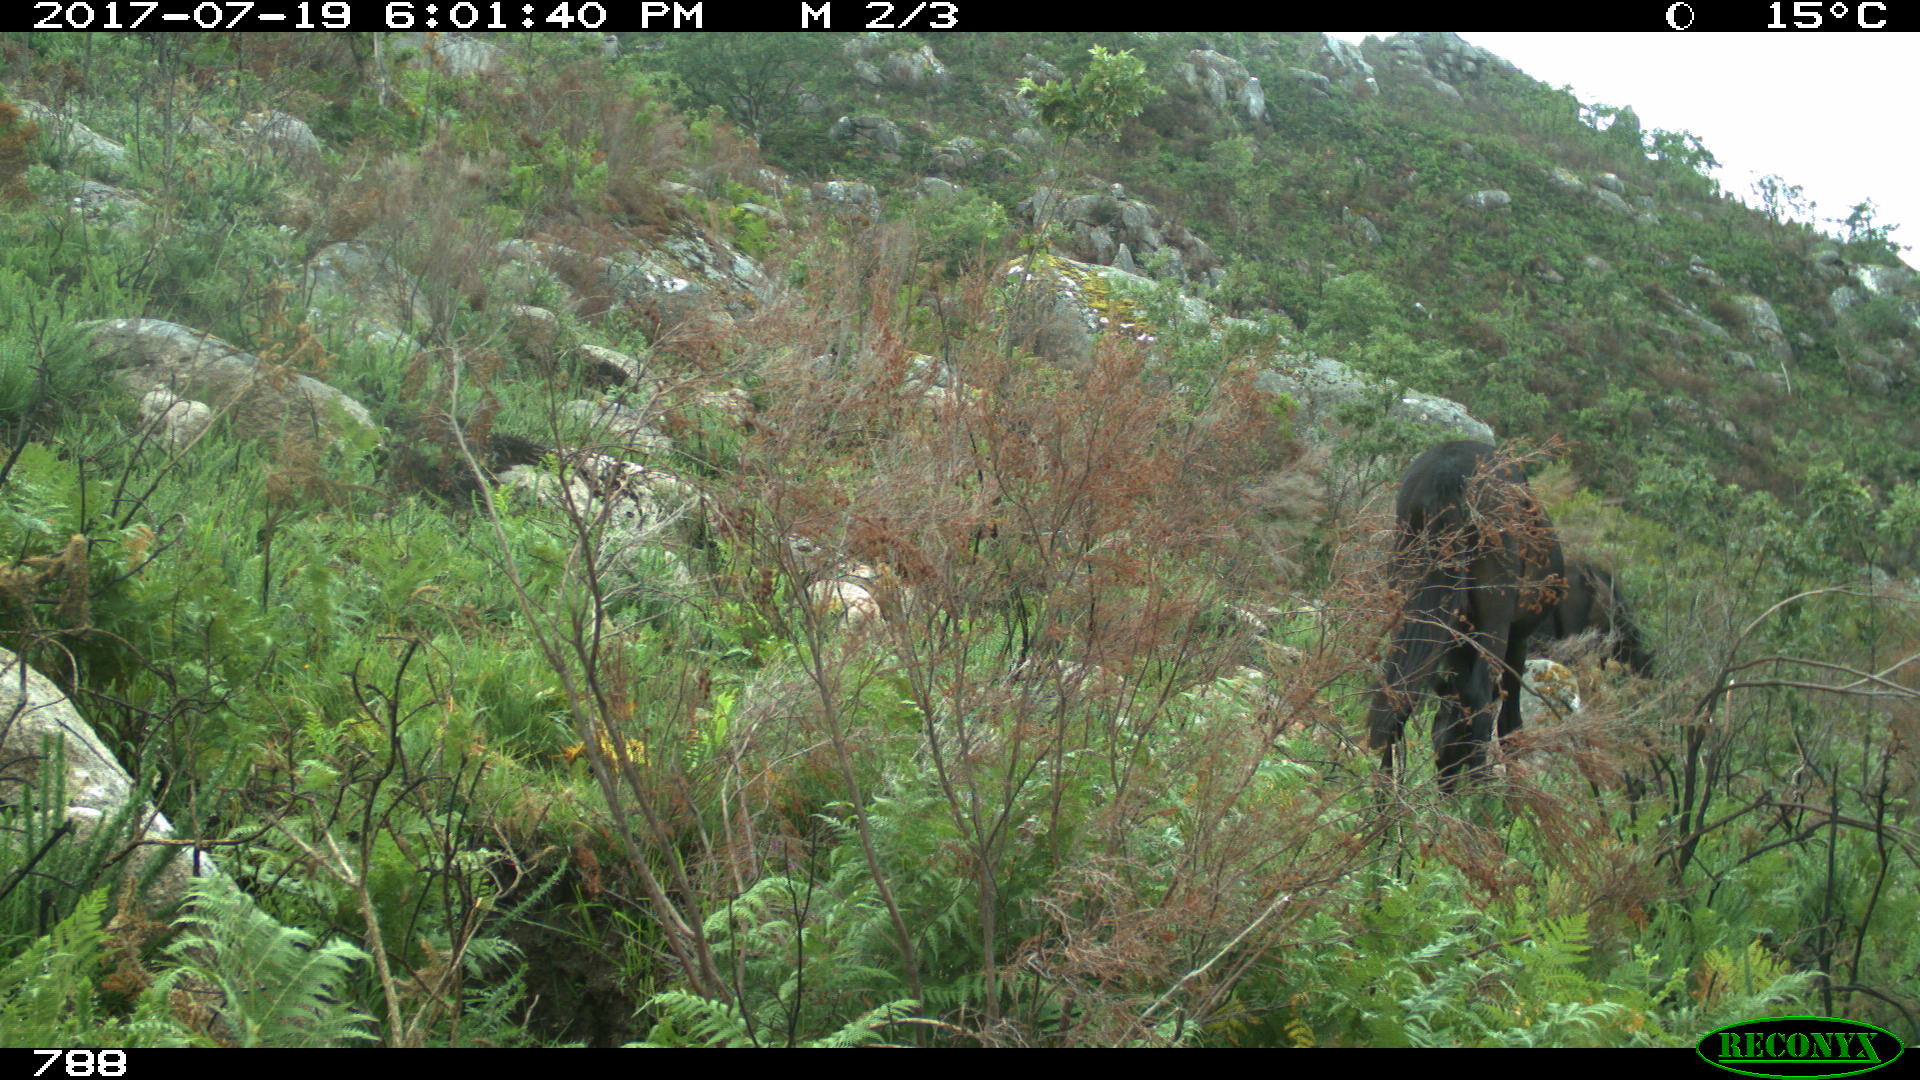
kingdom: Animalia
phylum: Chordata
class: Mammalia
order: Perissodactyla
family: Equidae
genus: Equus
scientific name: Equus caballus
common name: Horse
